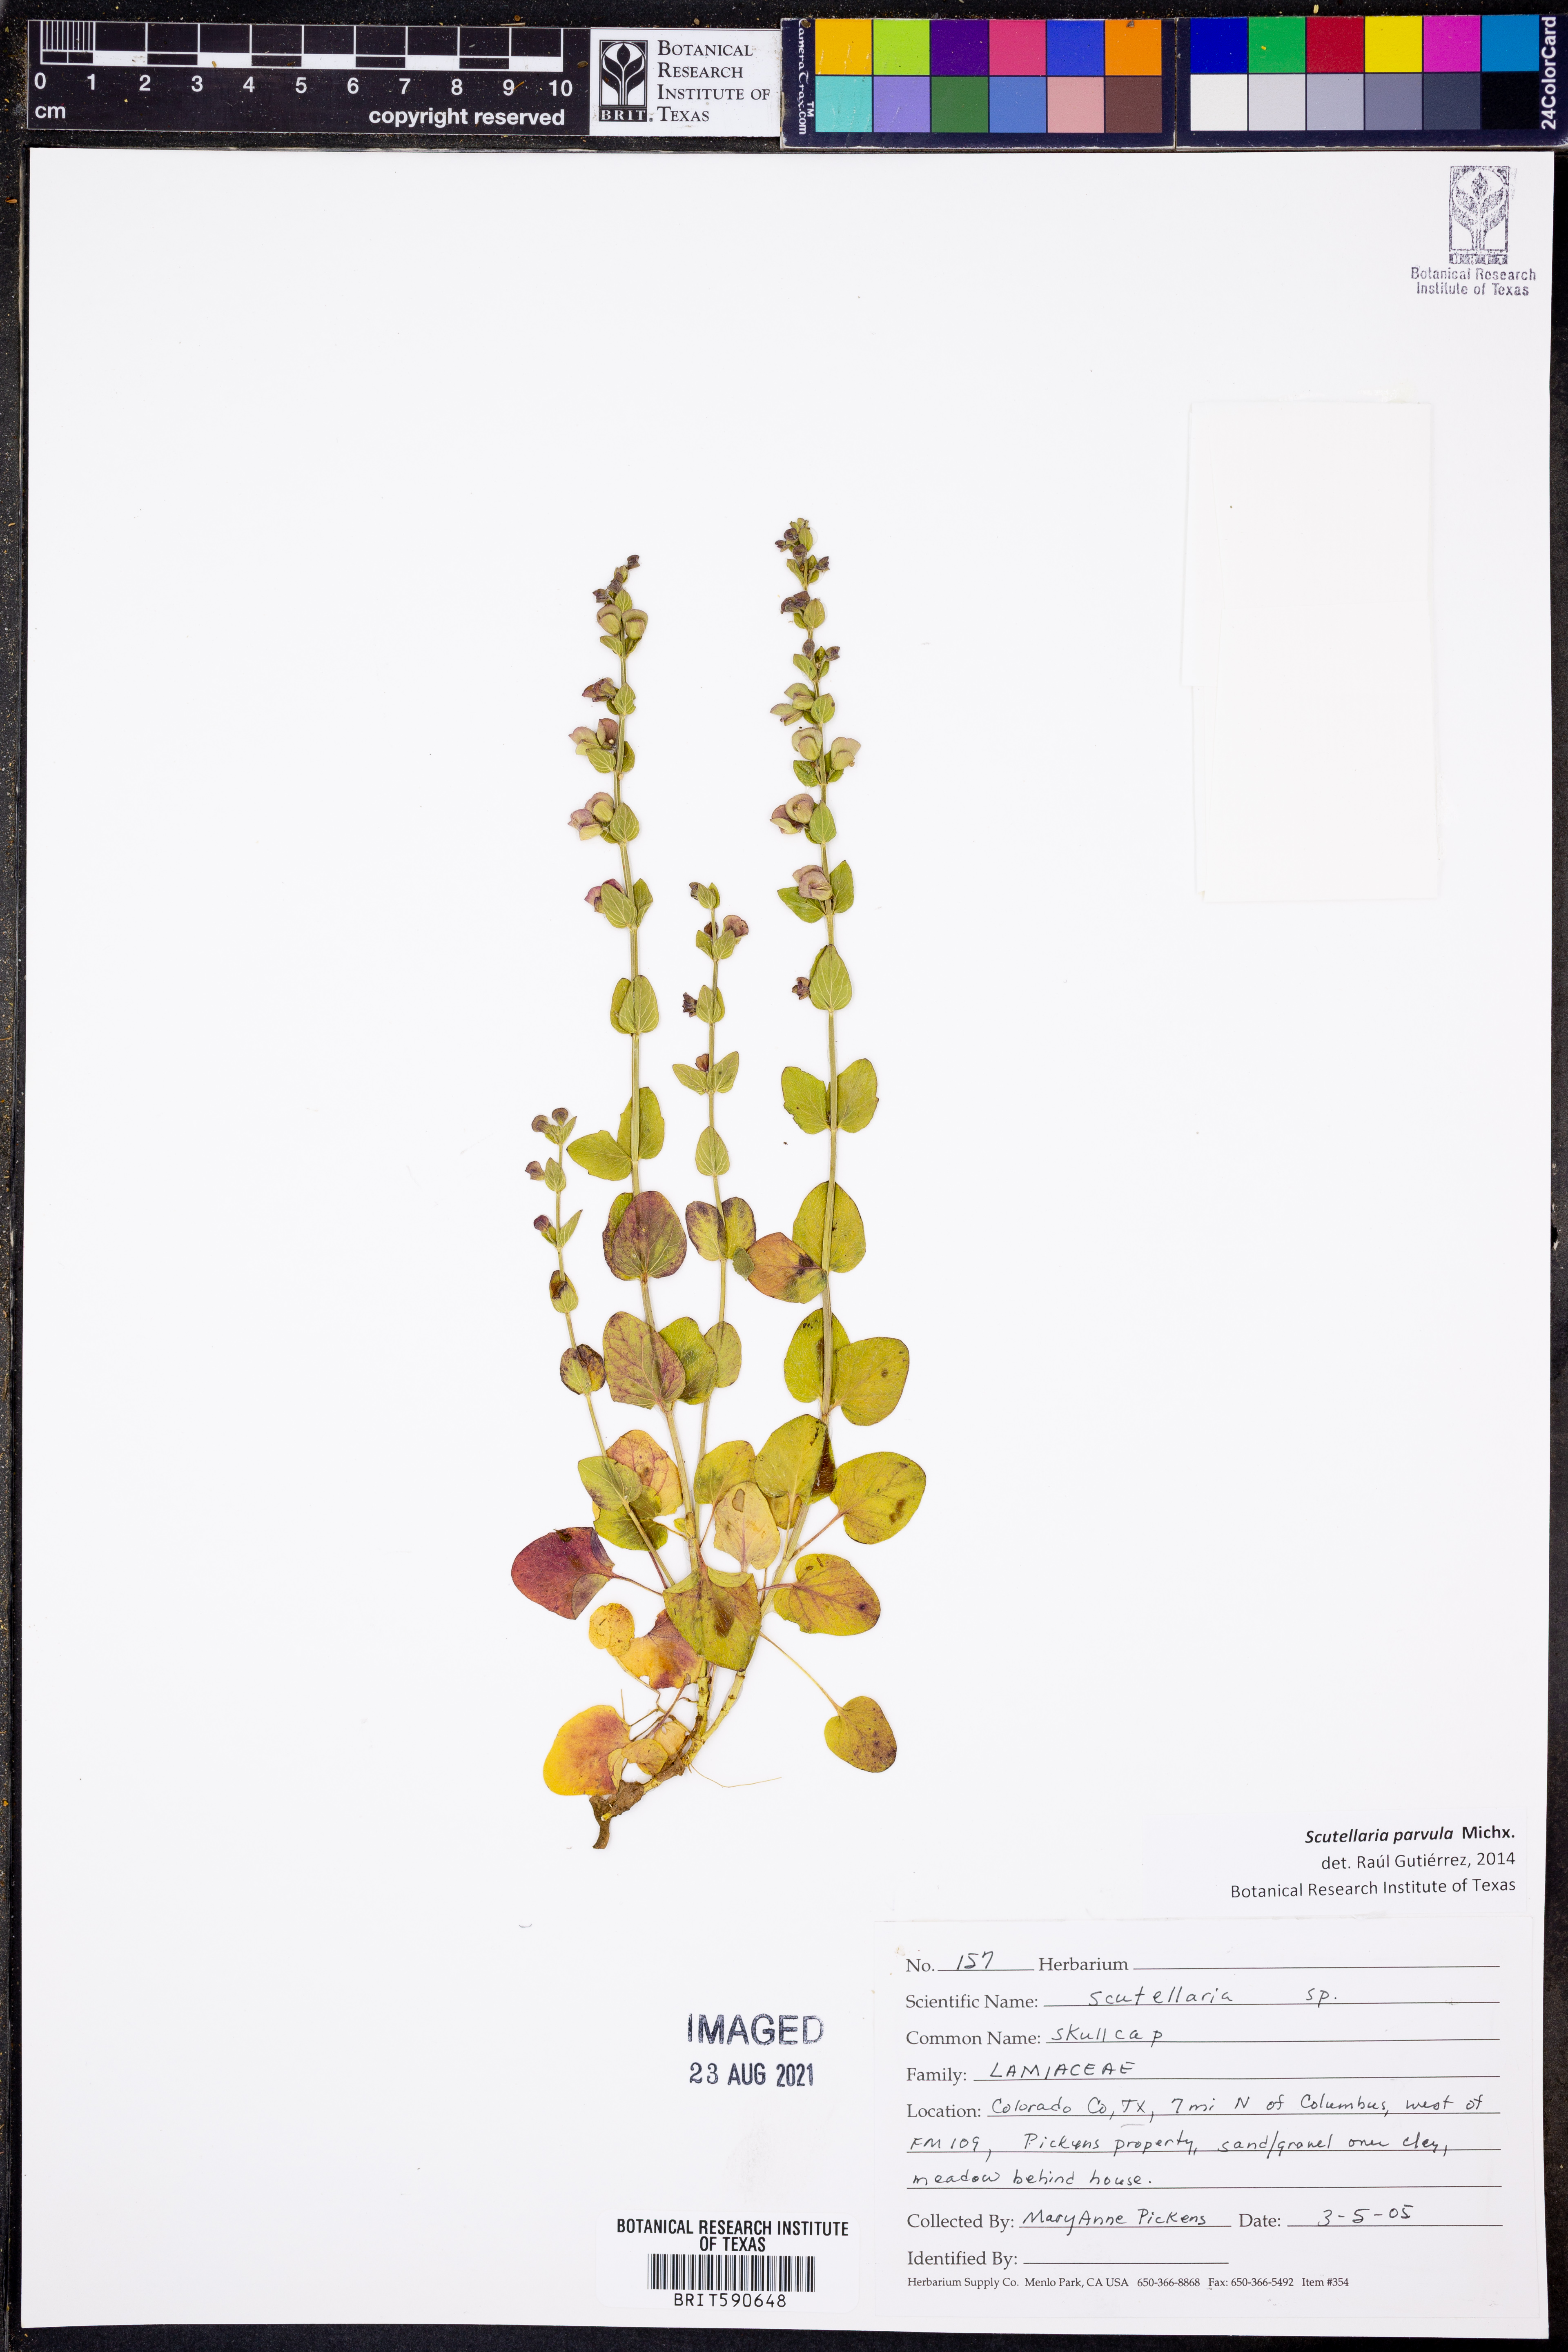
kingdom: Plantae
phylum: Tracheophyta
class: Magnoliopsida
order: Lamiales
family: Lamiaceae
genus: Scutellaria
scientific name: Scutellaria parvula
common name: Little scullcap
